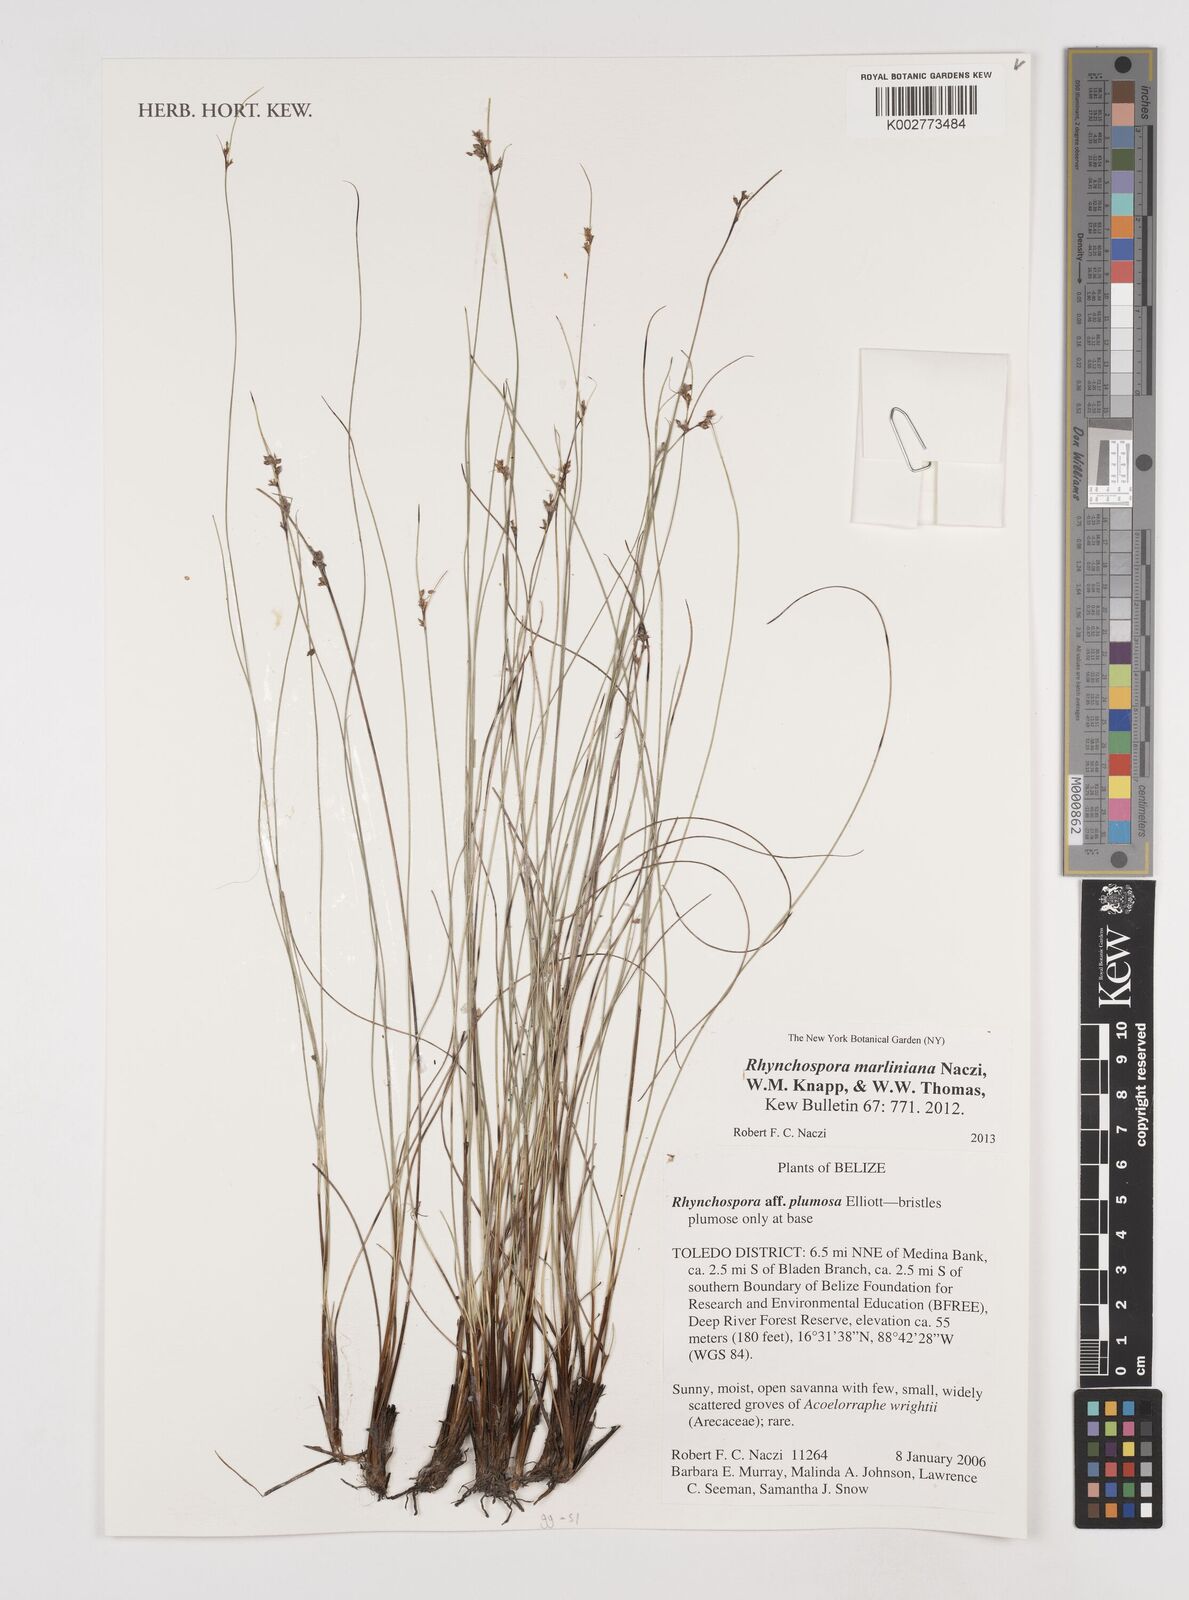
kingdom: Plantae
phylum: Tracheophyta
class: Liliopsida
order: Poales
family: Cyperaceae
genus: Rhynchospora
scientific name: Rhynchospora tenuiflora
